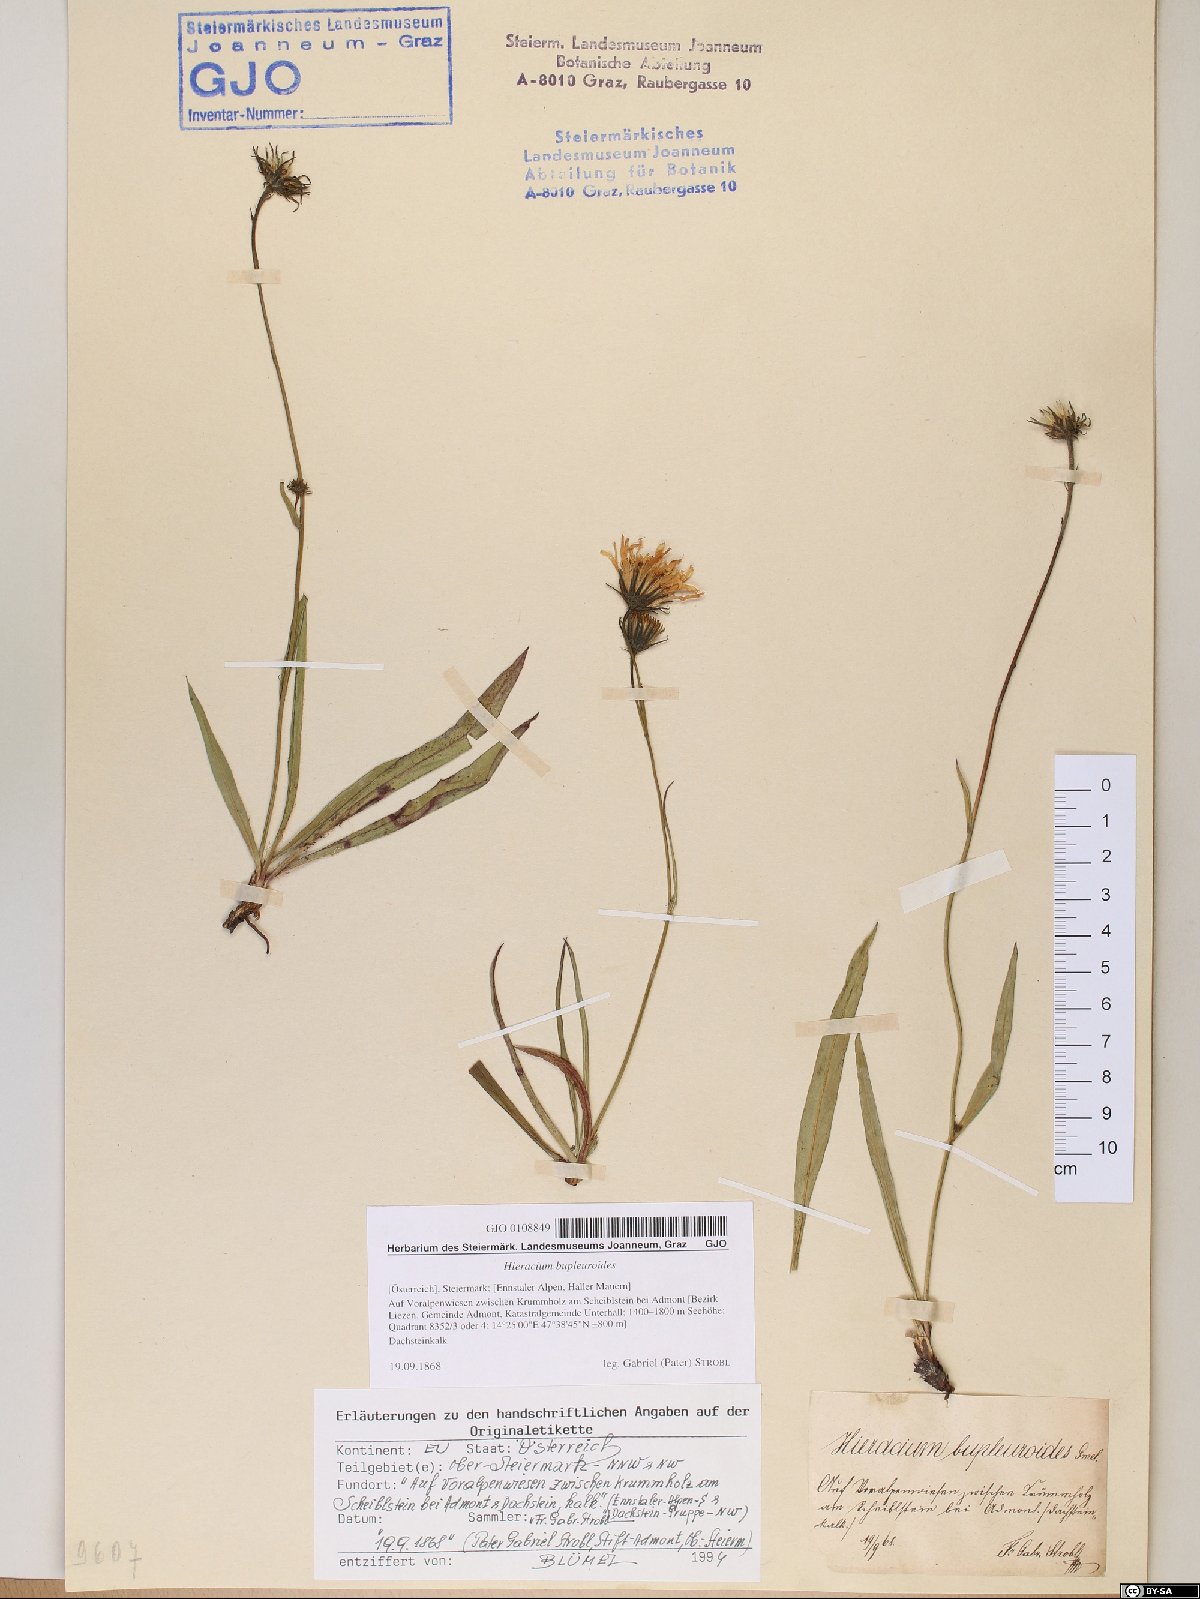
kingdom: Plantae
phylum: Tracheophyta
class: Magnoliopsida
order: Asterales
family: Asteraceae
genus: Hieracium
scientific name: Hieracium bupleuroides
